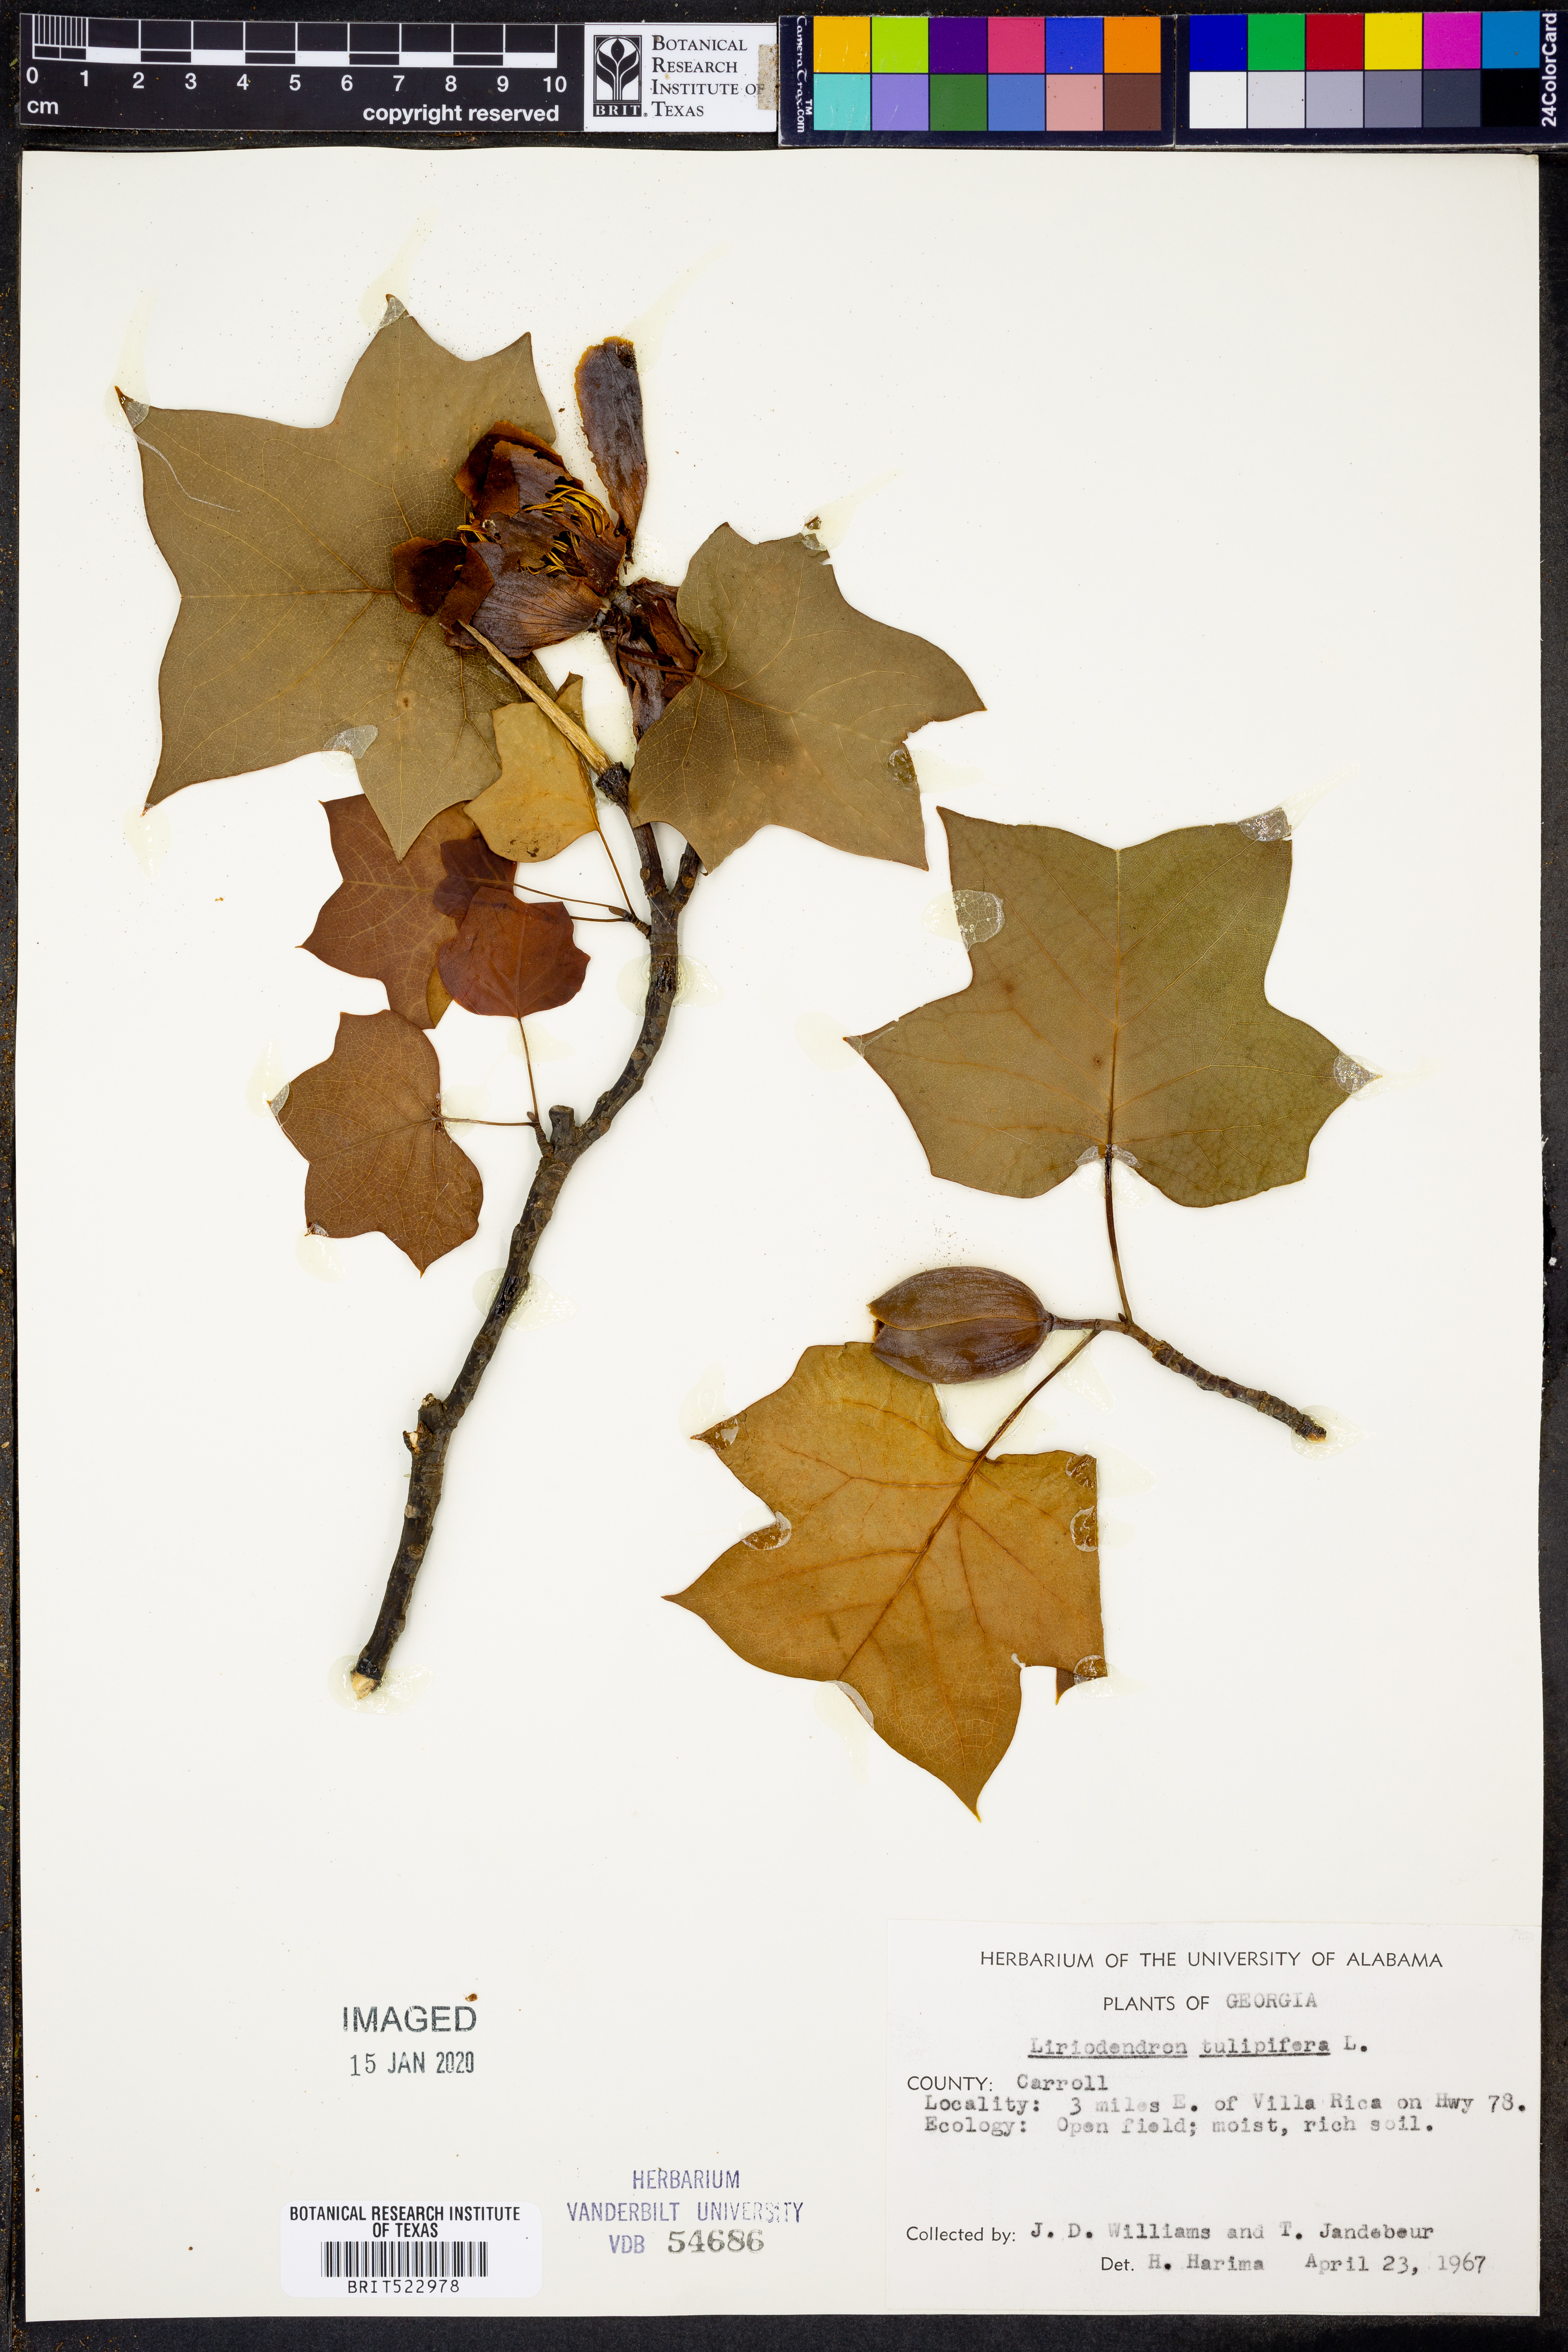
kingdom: Plantae
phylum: Tracheophyta
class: Magnoliopsida
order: Magnoliales
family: Magnoliaceae
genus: Liriodendron
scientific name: Liriodendron tulipifera
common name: Tulip tree
